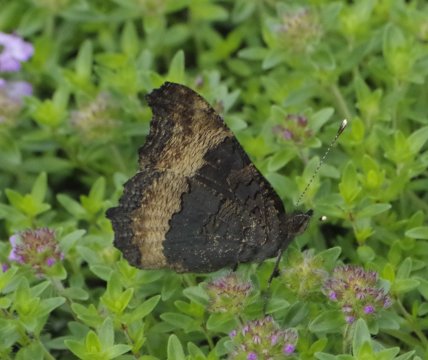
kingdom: Animalia
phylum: Arthropoda
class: Insecta
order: Lepidoptera
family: Nymphalidae
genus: Aglais
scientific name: Aglais milberti
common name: Milbert's Tortoiseshell
